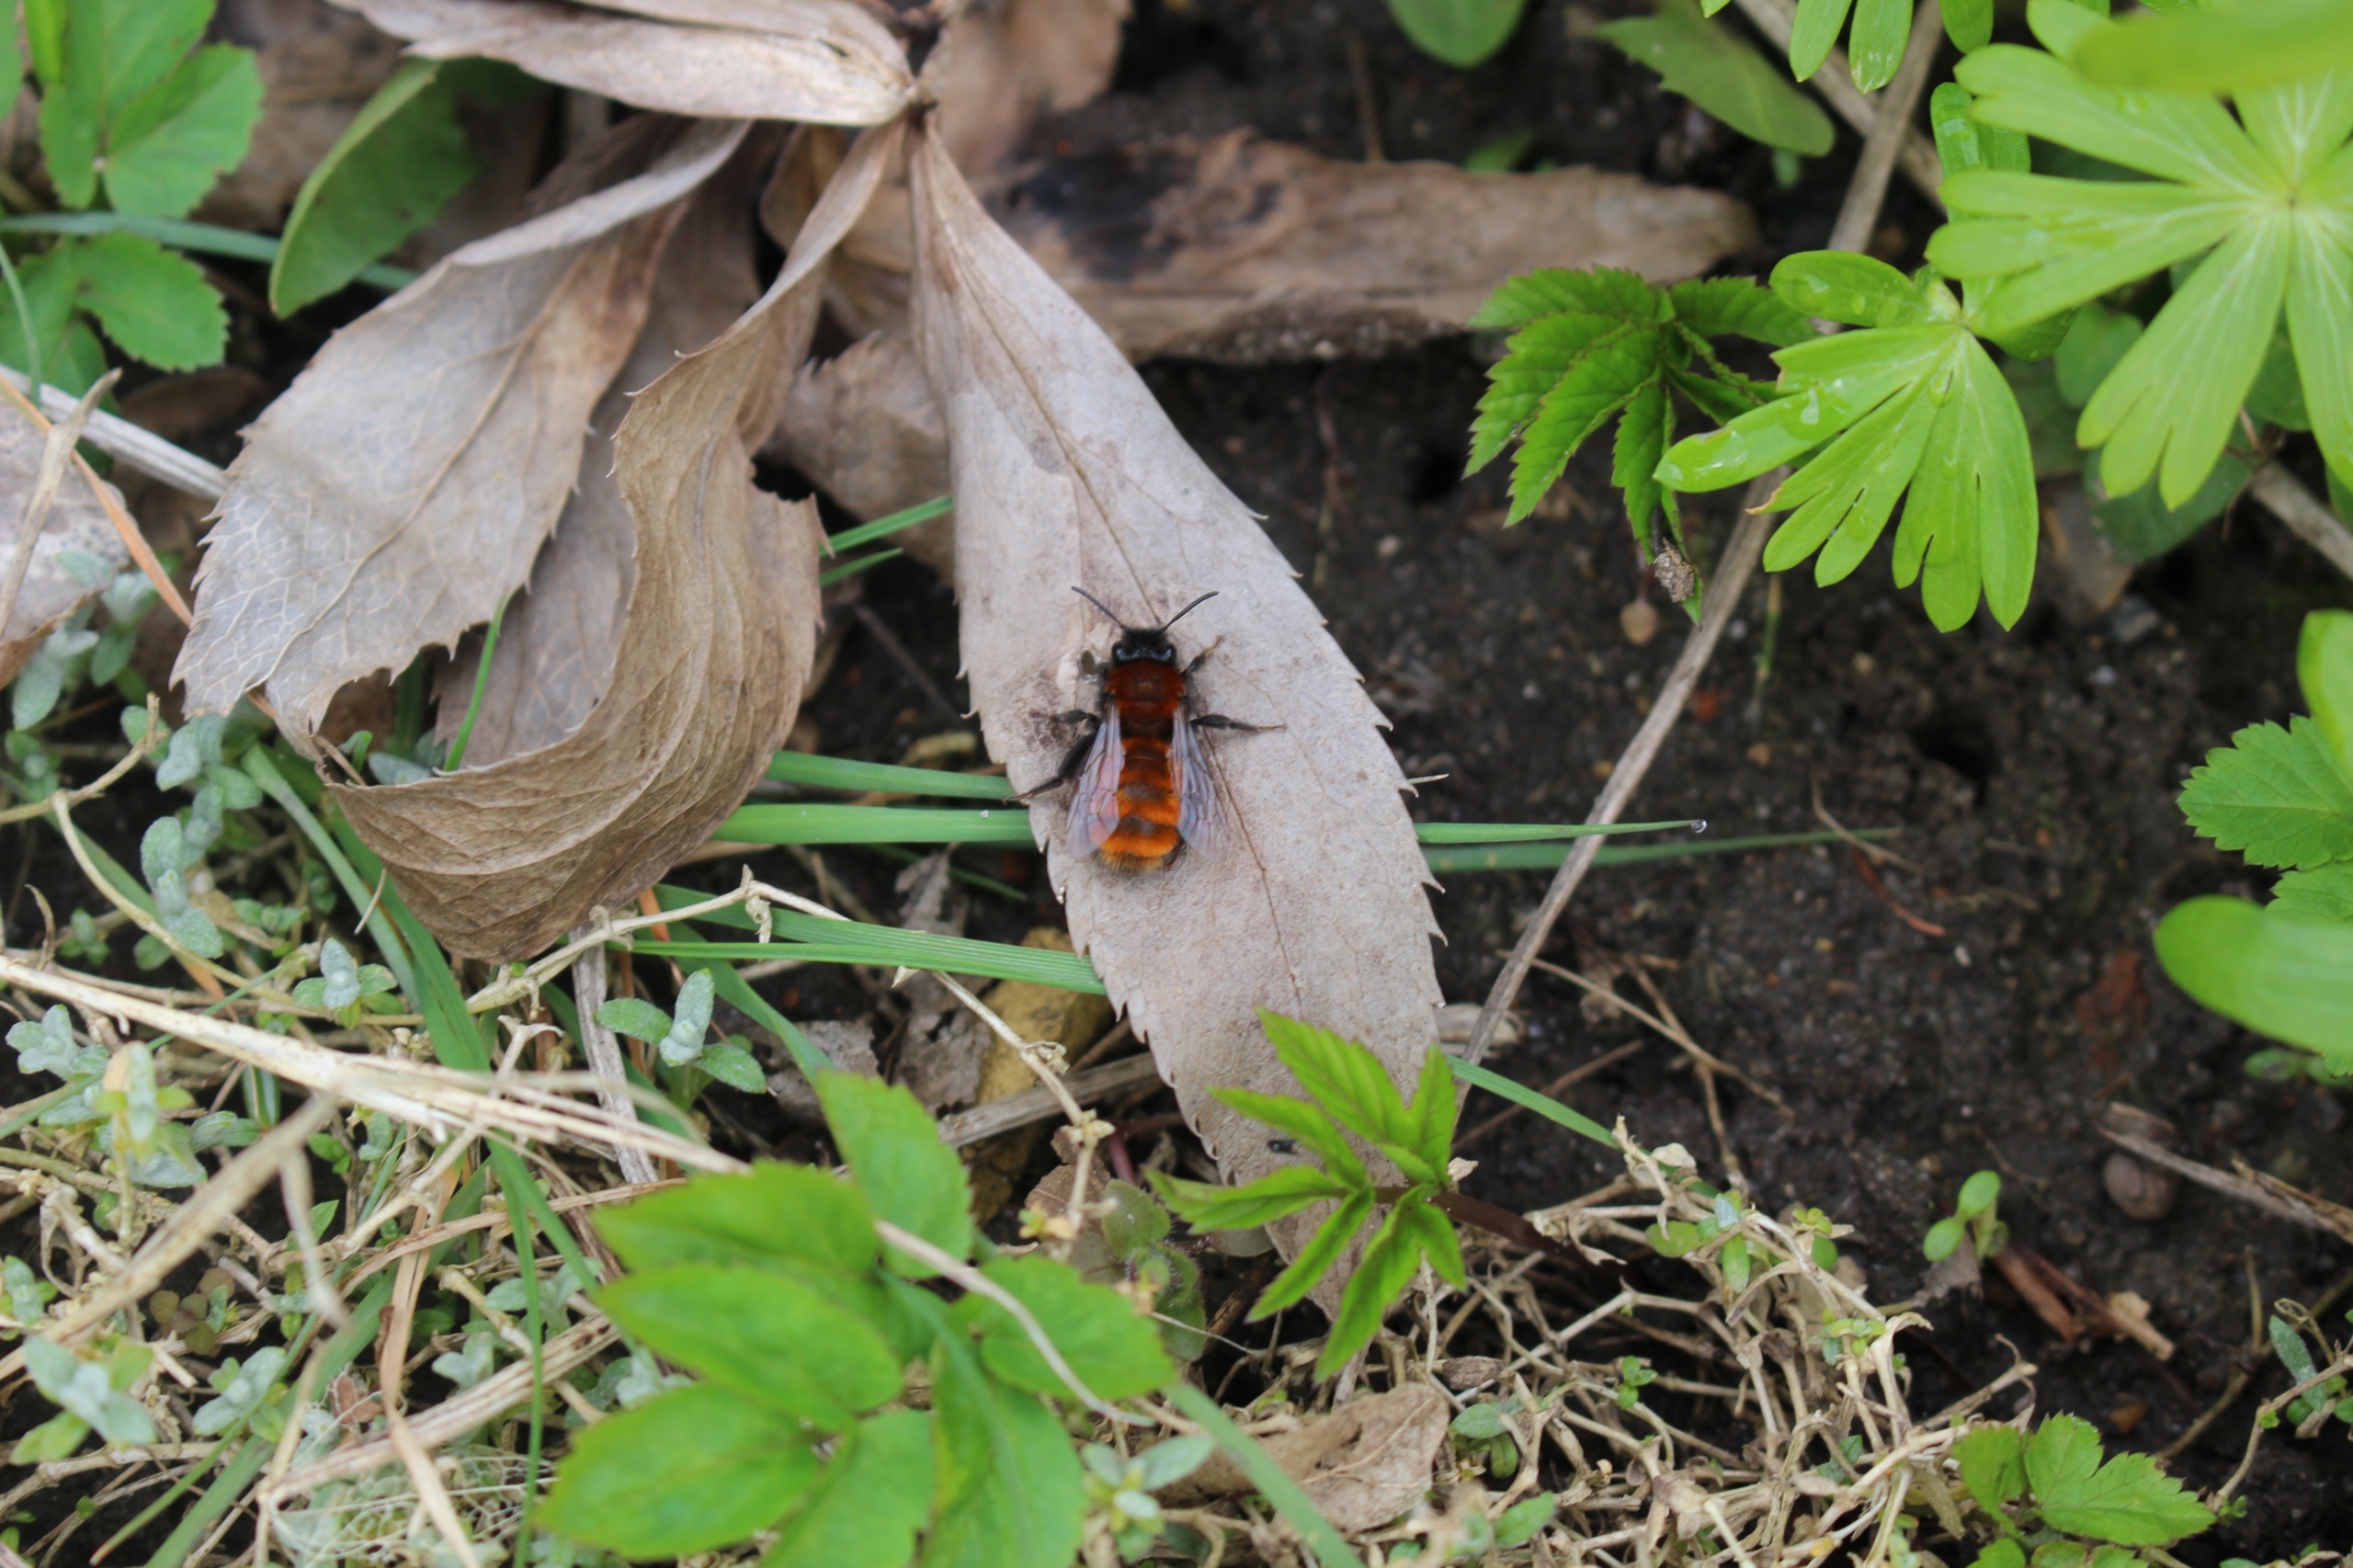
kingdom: Animalia
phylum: Arthropoda
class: Insecta
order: Hymenoptera
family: Andrenidae
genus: Andrena
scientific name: Andrena fulva
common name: Rødpelset jordbi
